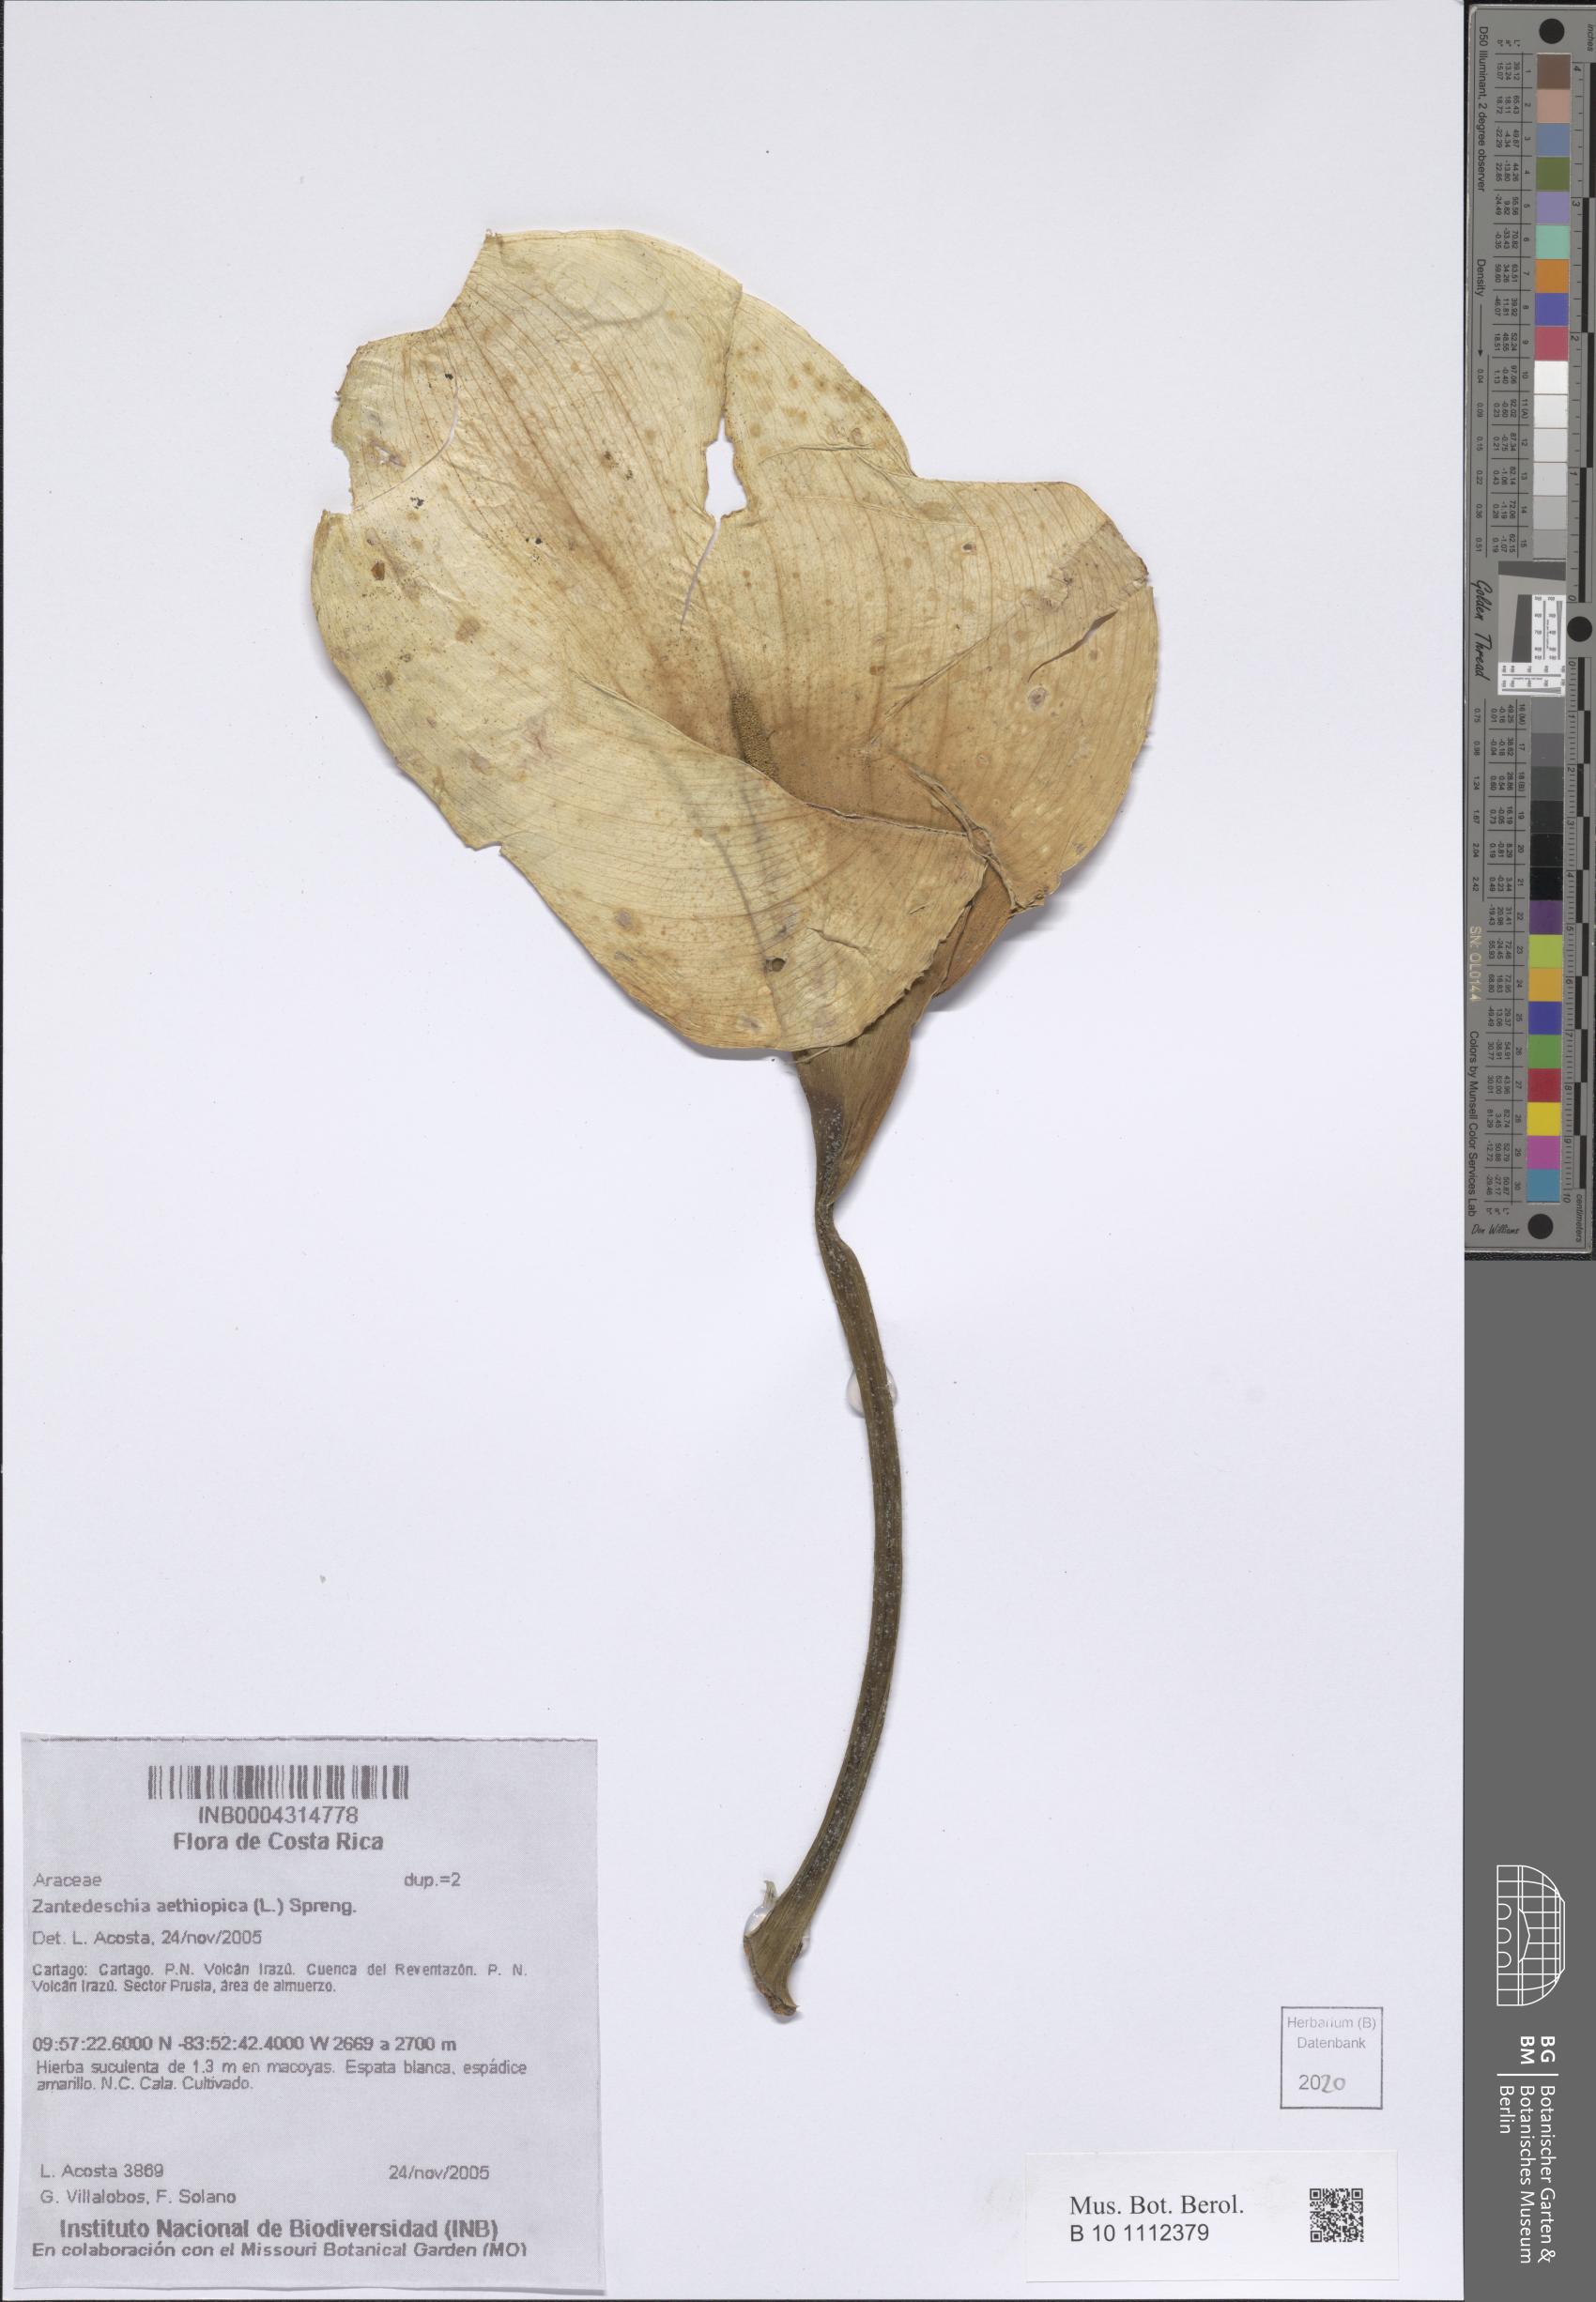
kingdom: Plantae
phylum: Tracheophyta
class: Liliopsida
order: Alismatales
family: Araceae
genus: Zantedeschia
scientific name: Zantedeschia aethiopica
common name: Altar-lily
